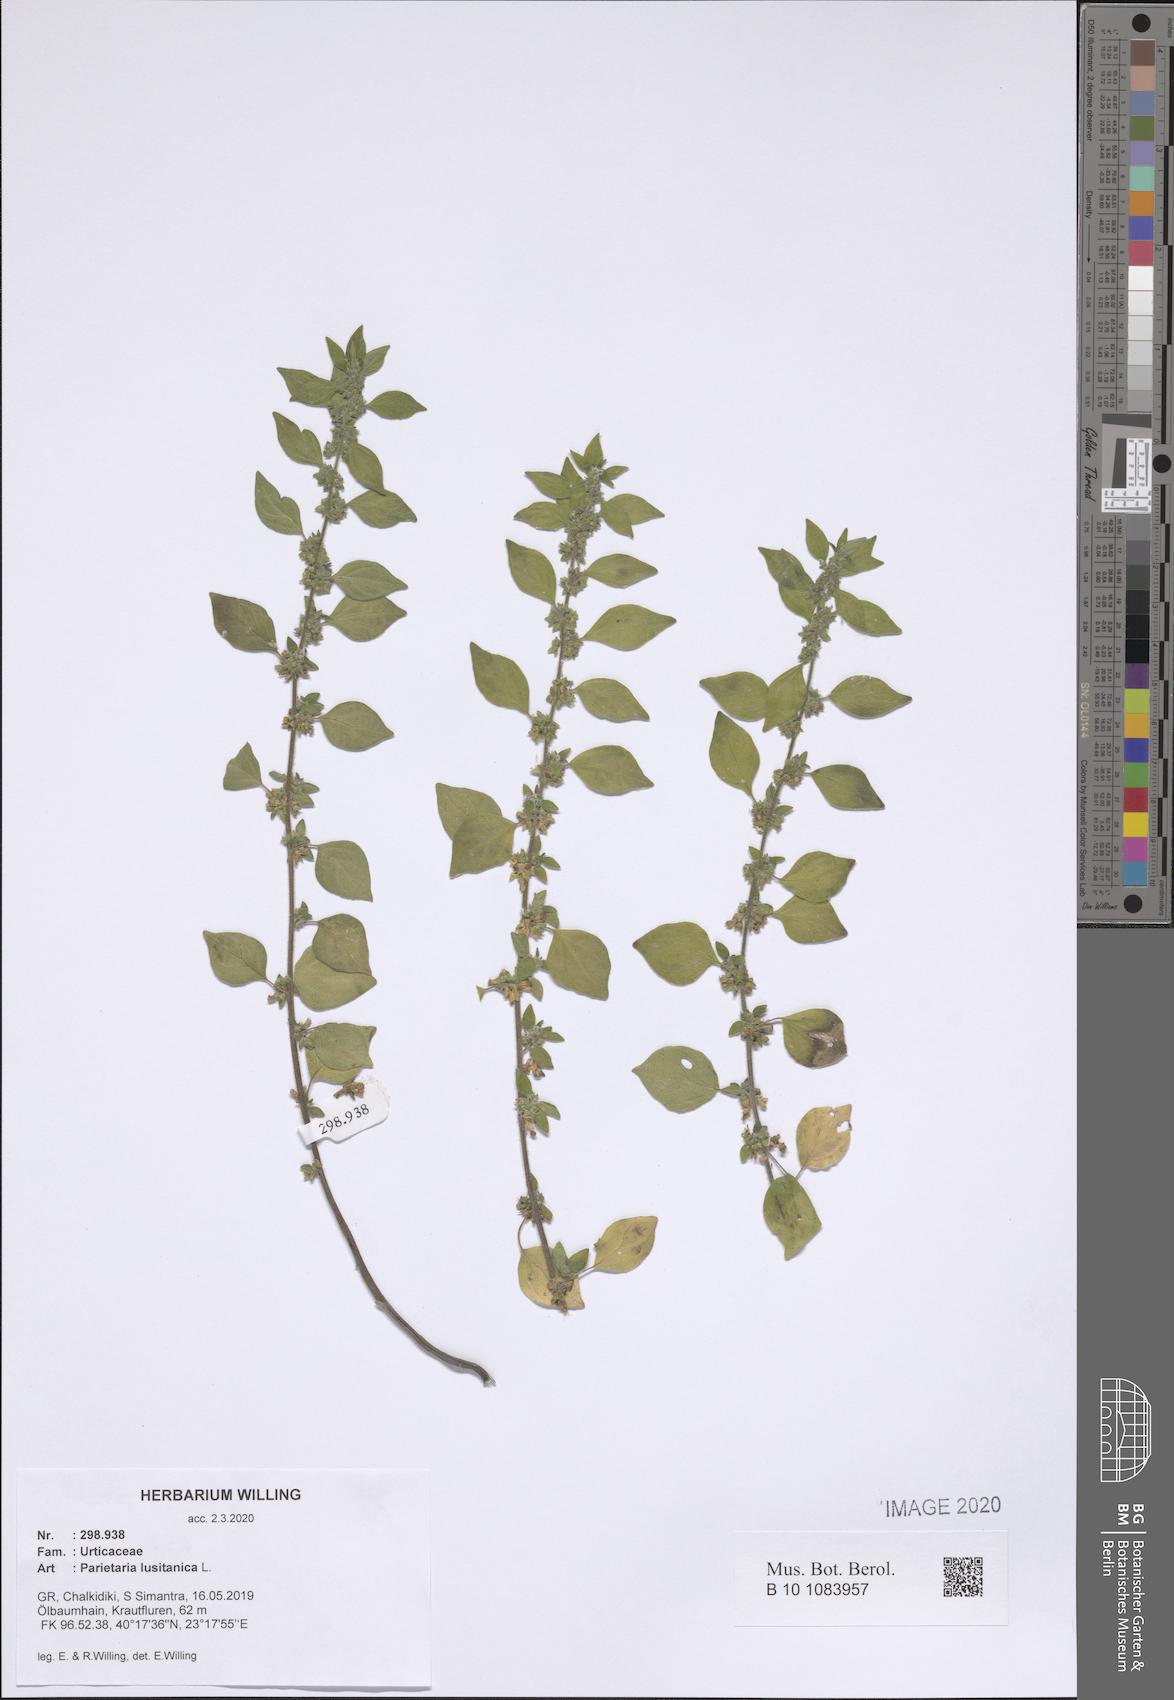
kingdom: Plantae
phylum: Tracheophyta
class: Magnoliopsida
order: Rosales
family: Urticaceae
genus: Parietaria
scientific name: Parietaria lusitanica
